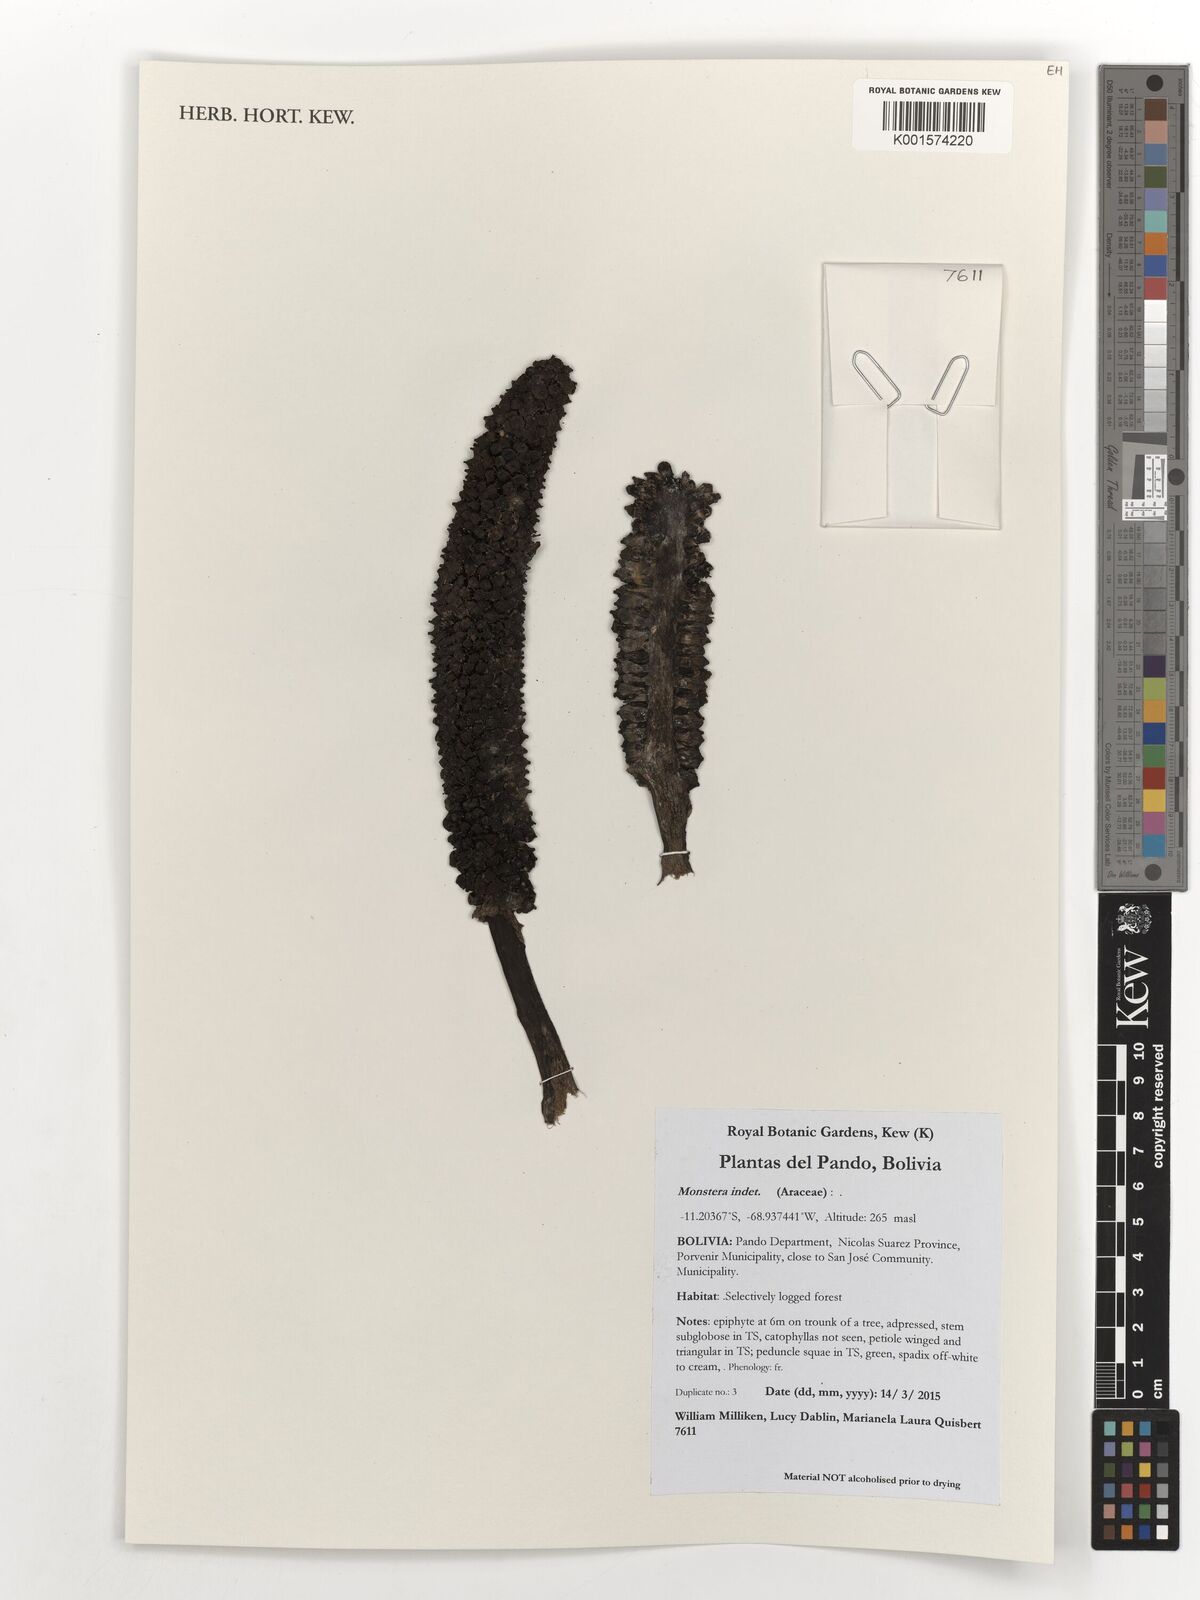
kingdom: Plantae
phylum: Tracheophyta
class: Liliopsida
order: Alismatales
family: Araceae
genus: Monstera
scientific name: Monstera
